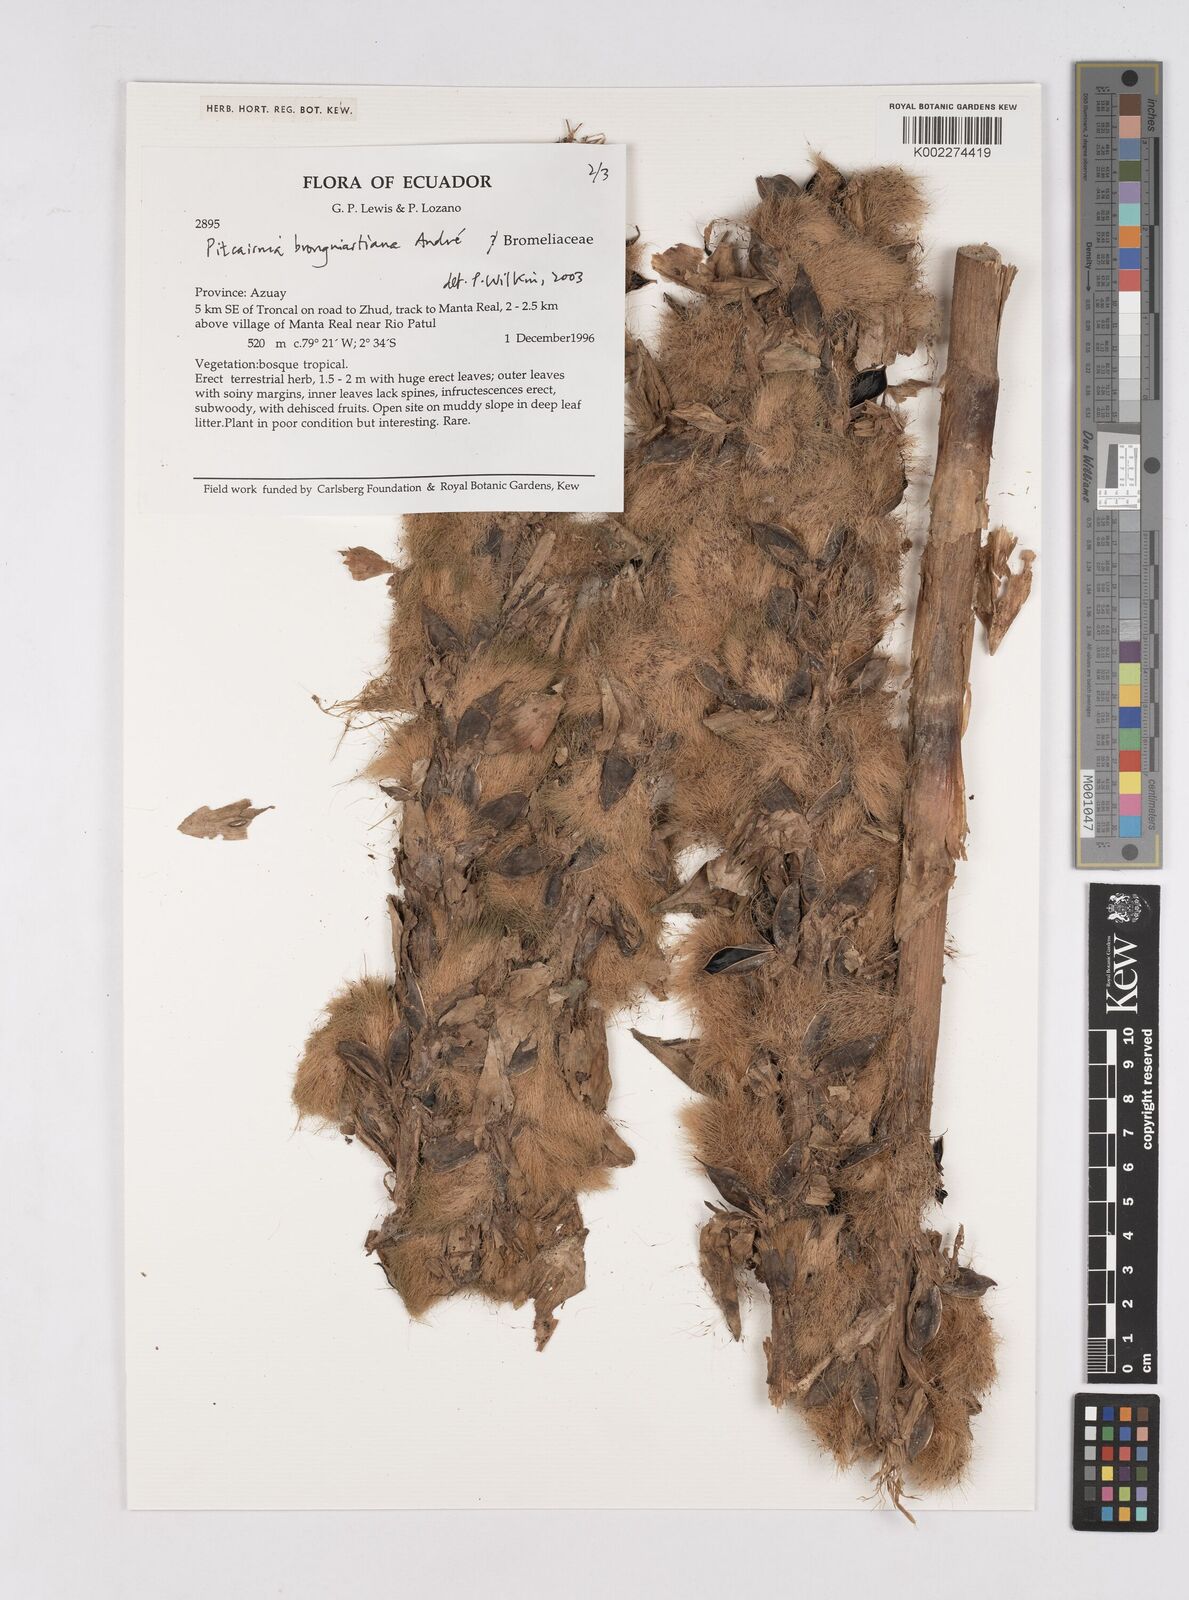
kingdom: Plantae
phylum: Tracheophyta
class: Liliopsida
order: Poales
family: Bromeliaceae
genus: Pitcairnia
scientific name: Pitcairnia brongniartiana
